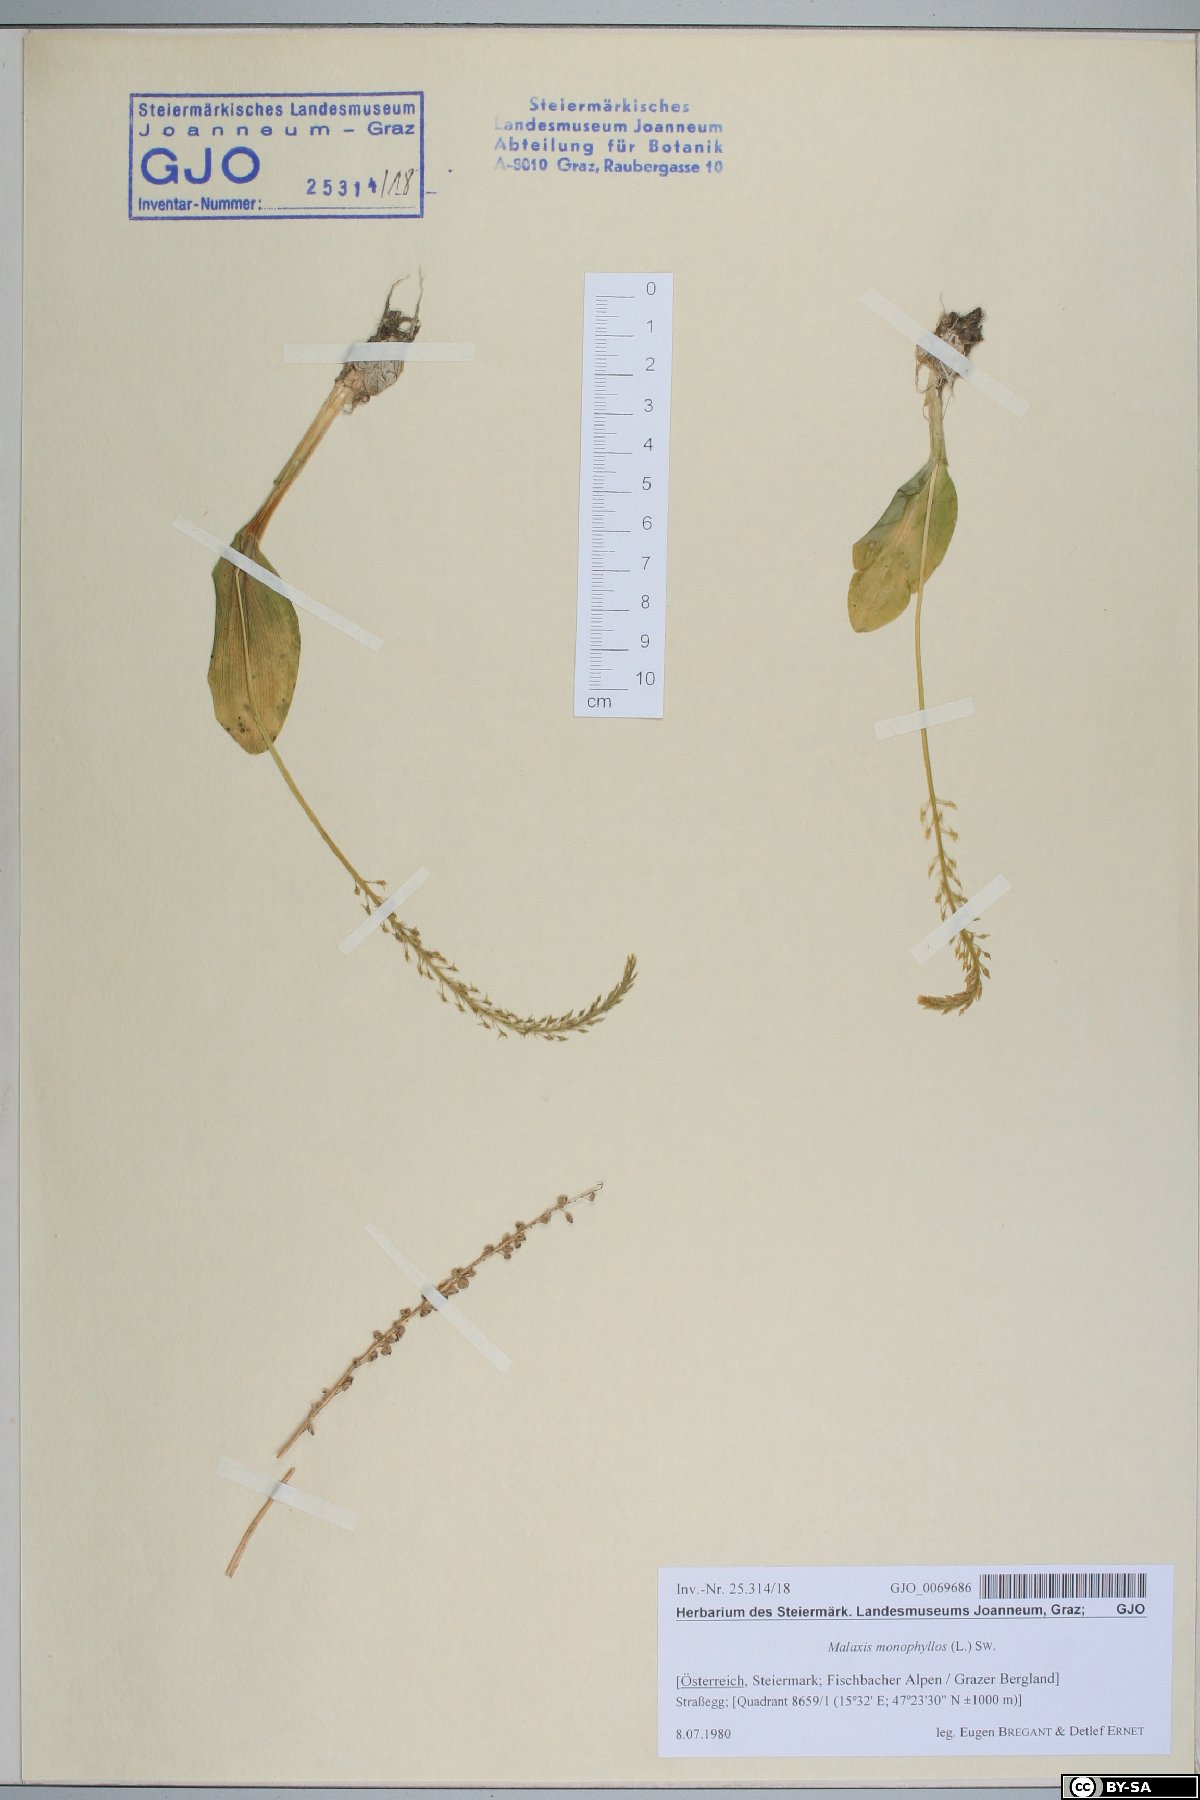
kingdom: Plantae
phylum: Tracheophyta
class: Liliopsida
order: Asparagales
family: Orchidaceae
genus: Malaxis
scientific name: Malaxis monophyllos
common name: White adder's-mouth
